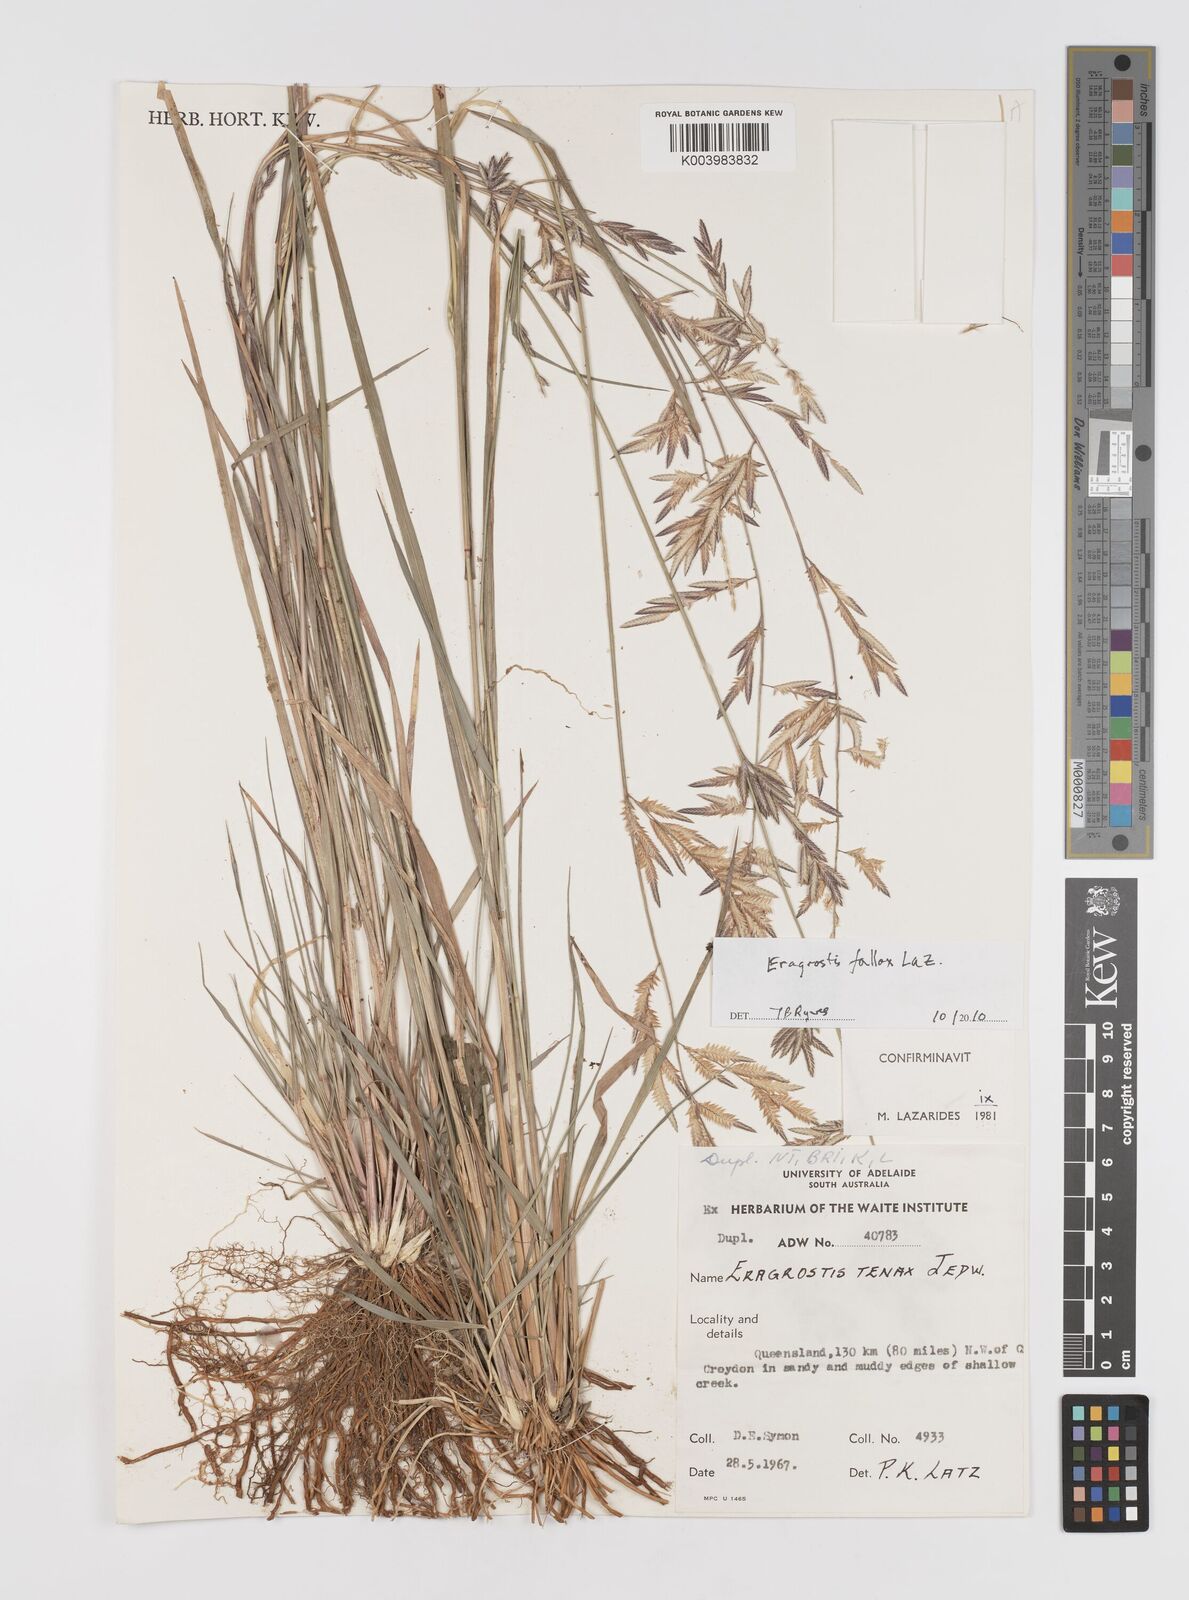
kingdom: Plantae
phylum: Tracheophyta
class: Liliopsida
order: Poales
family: Poaceae
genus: Eragrostis
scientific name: Eragrostis fallax
